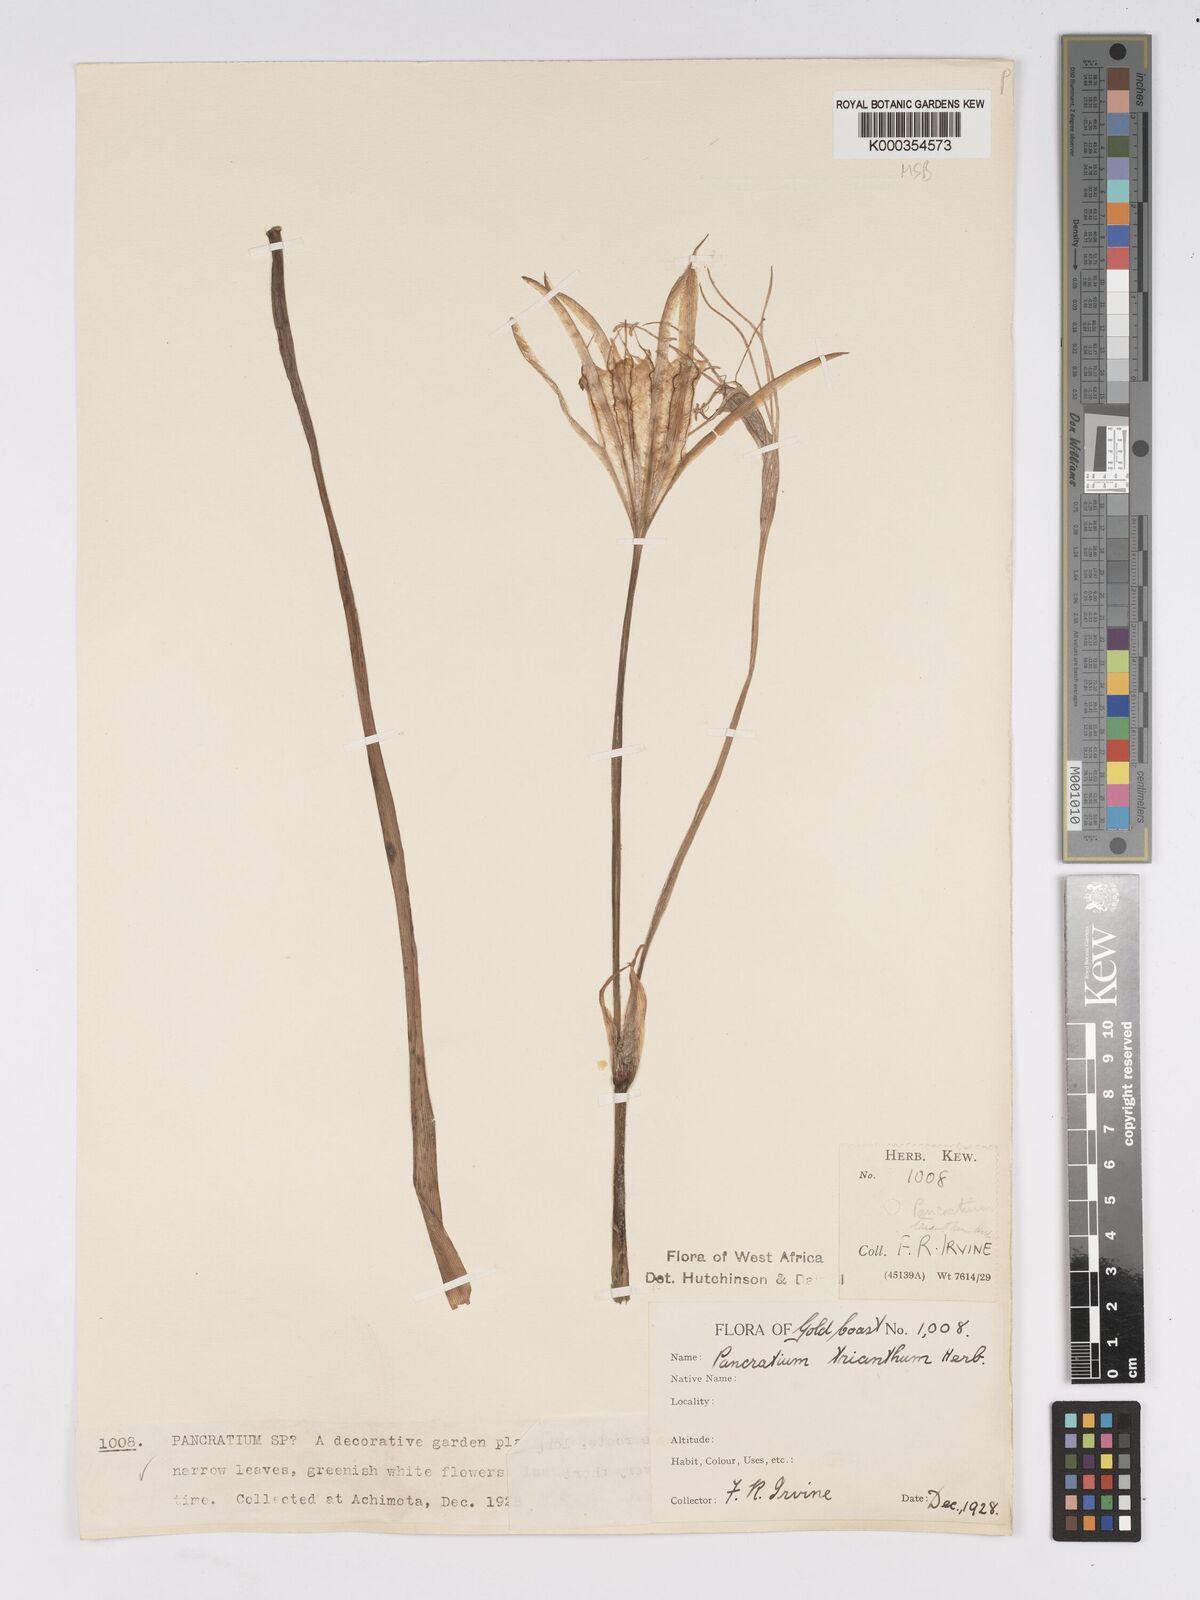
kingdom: Plantae
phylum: Tracheophyta
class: Liliopsida
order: Asparagales
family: Amaryllidaceae
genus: Pancratium
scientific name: Pancratium trianthum
